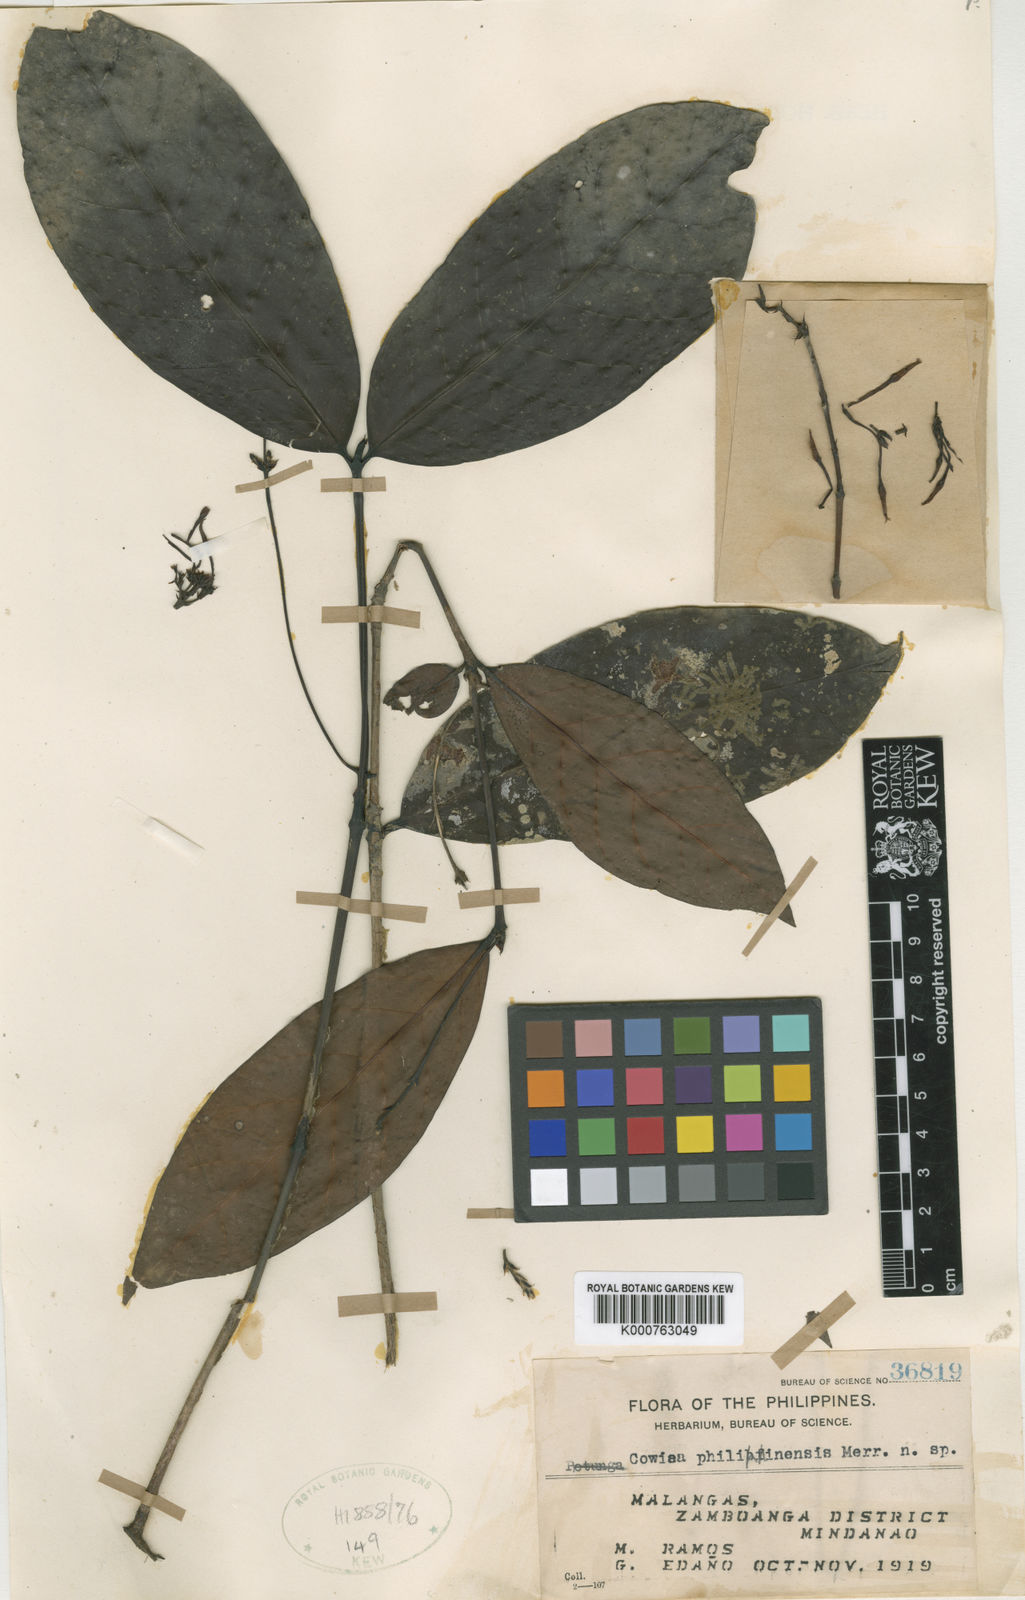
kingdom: Plantae
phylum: Tracheophyta
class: Magnoliopsida
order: Gentianales
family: Rubiaceae
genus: Villaria
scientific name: Villaria odorata
